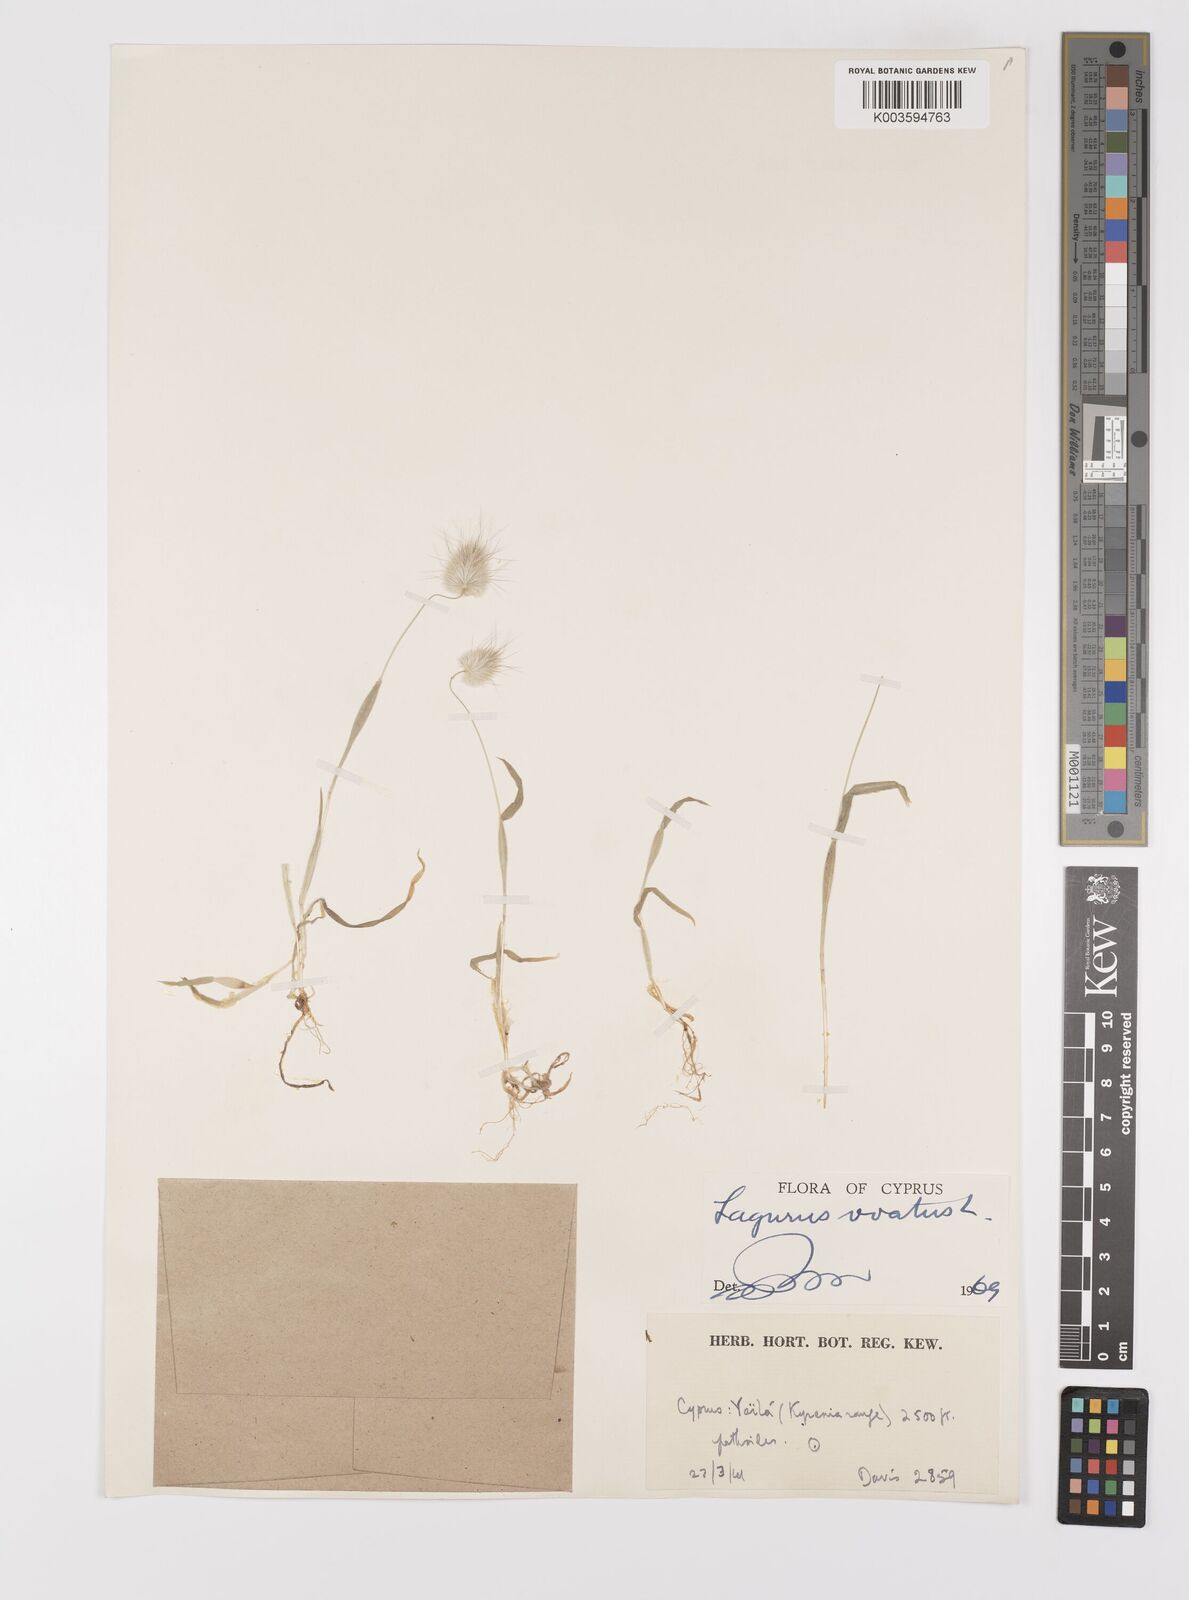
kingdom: Plantae
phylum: Tracheophyta
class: Liliopsida
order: Poales
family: Poaceae
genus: Lagurus
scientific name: Lagurus ovatus
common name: Hare's-tail
